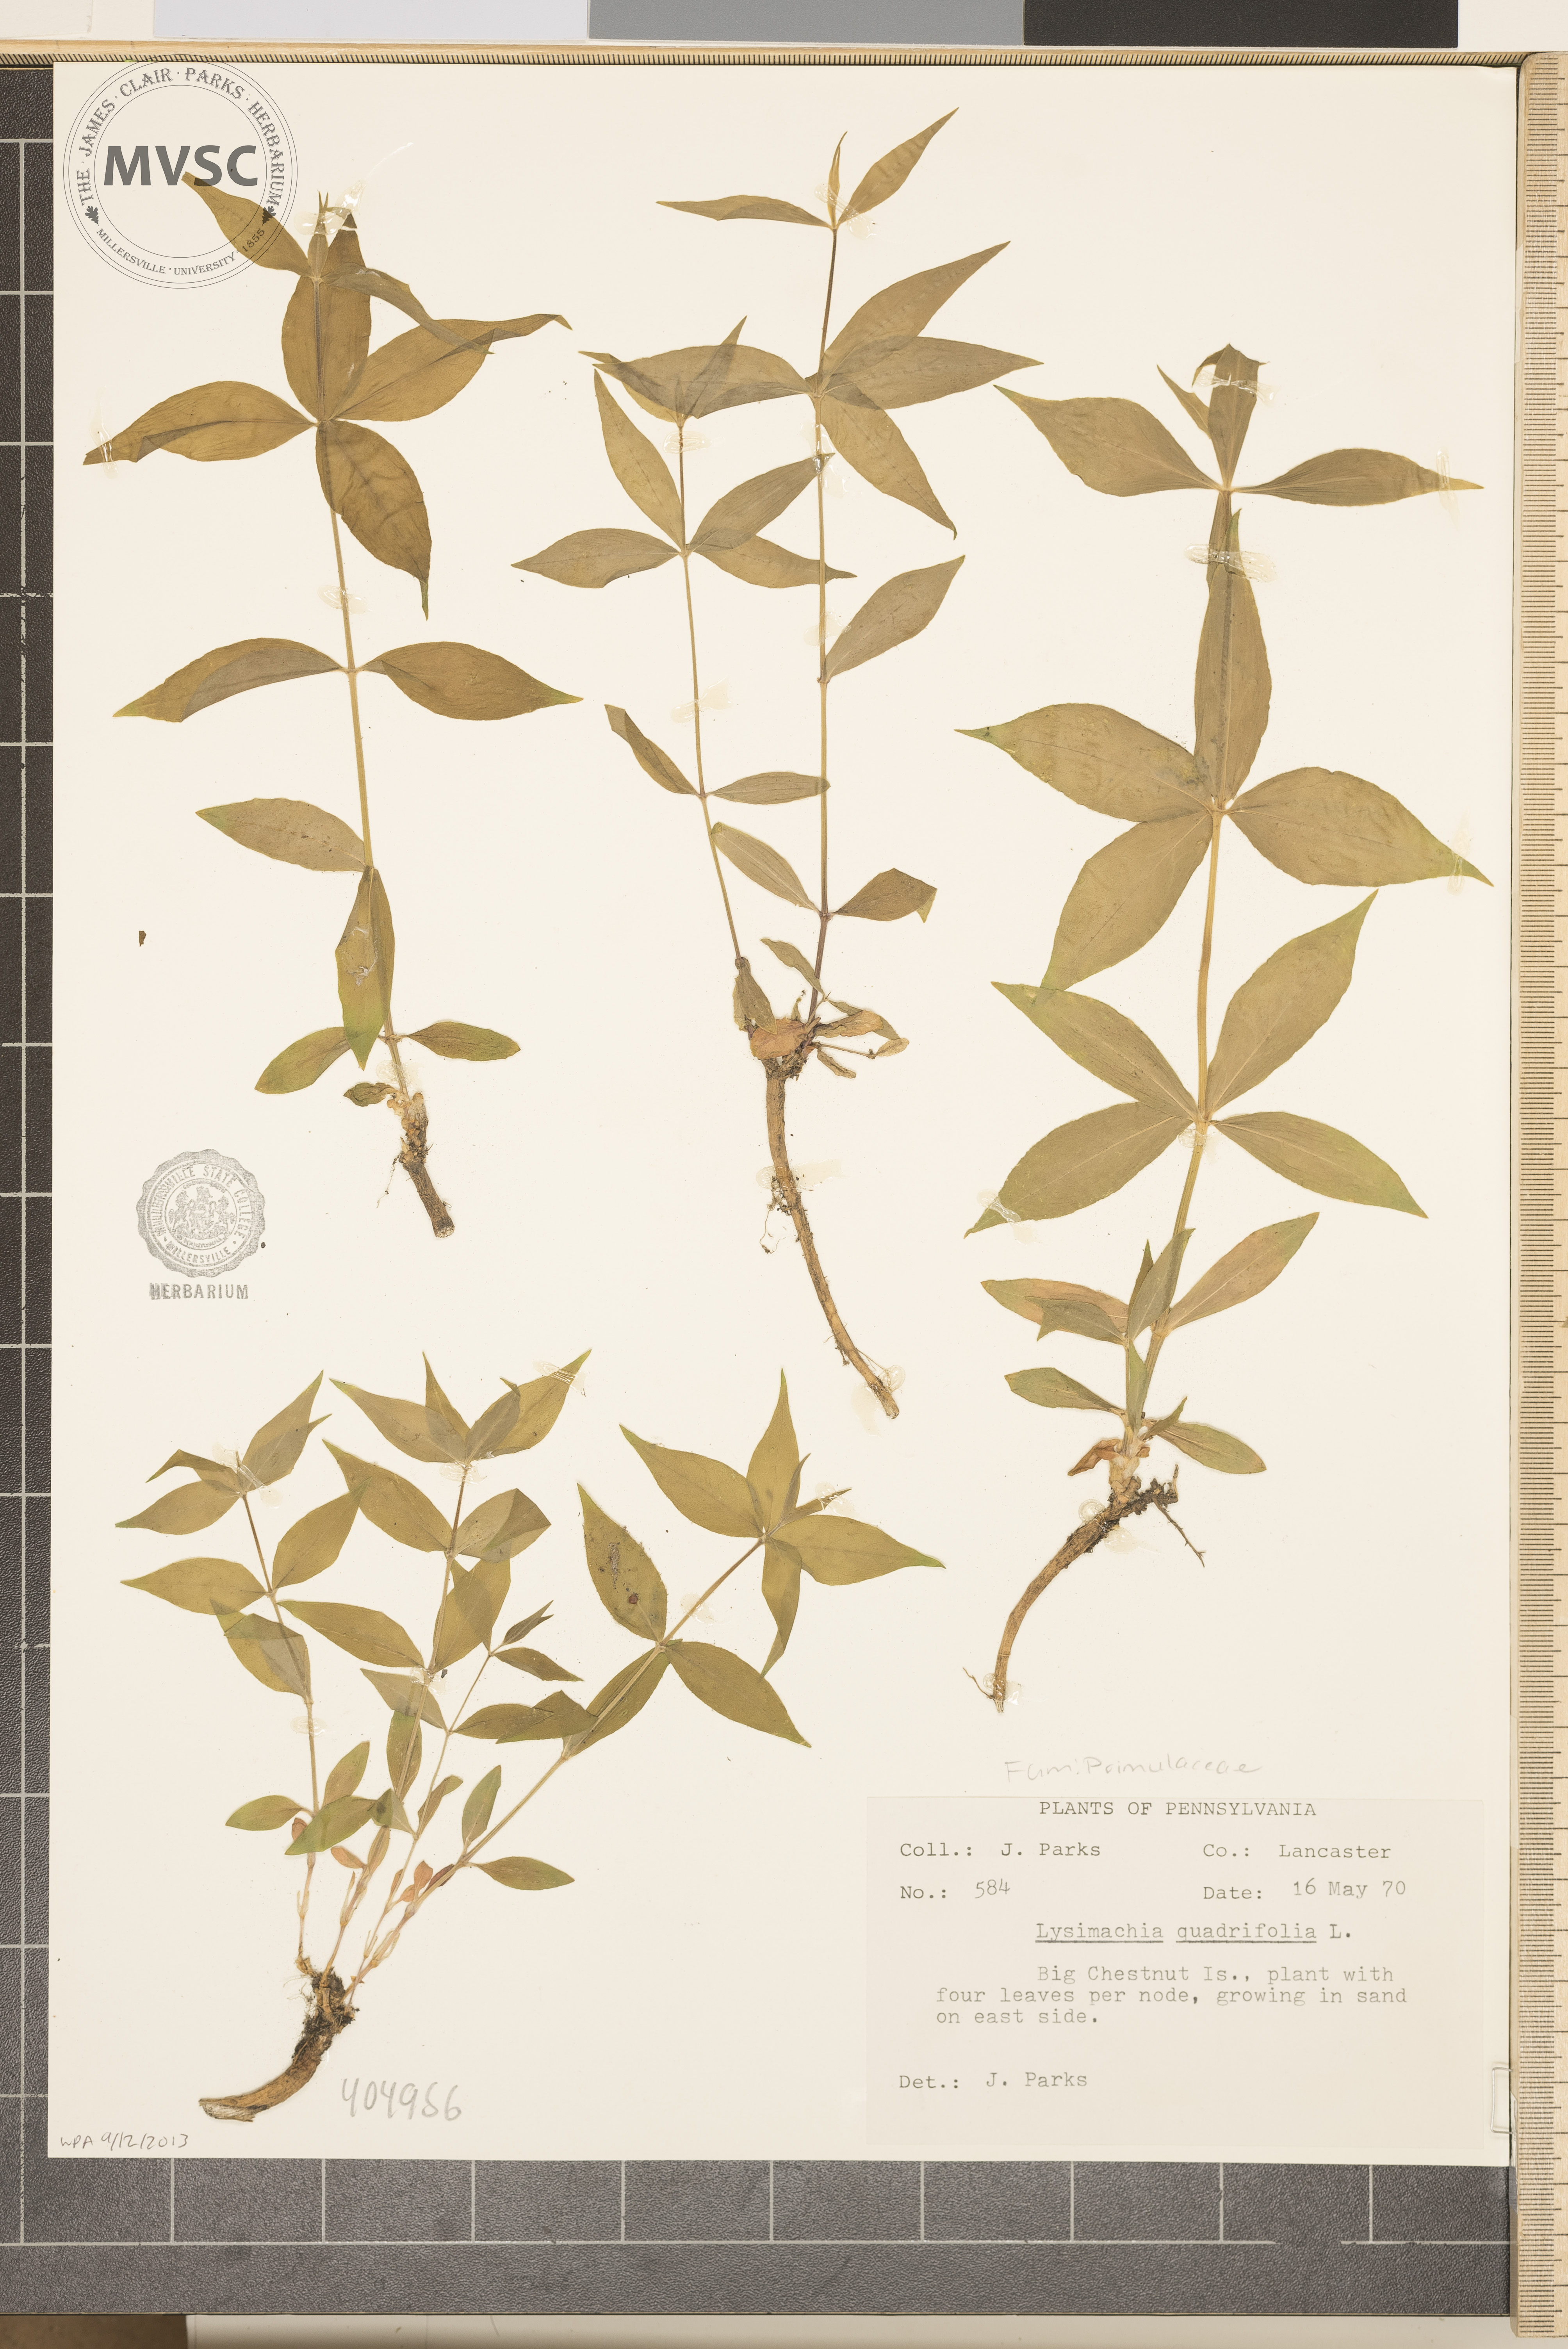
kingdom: Plantae
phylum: Tracheophyta
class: Magnoliopsida
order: Ericales
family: Primulaceae
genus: Lysimachia
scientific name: Lysimachia quadrifolia
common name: Whorled loosestrife
